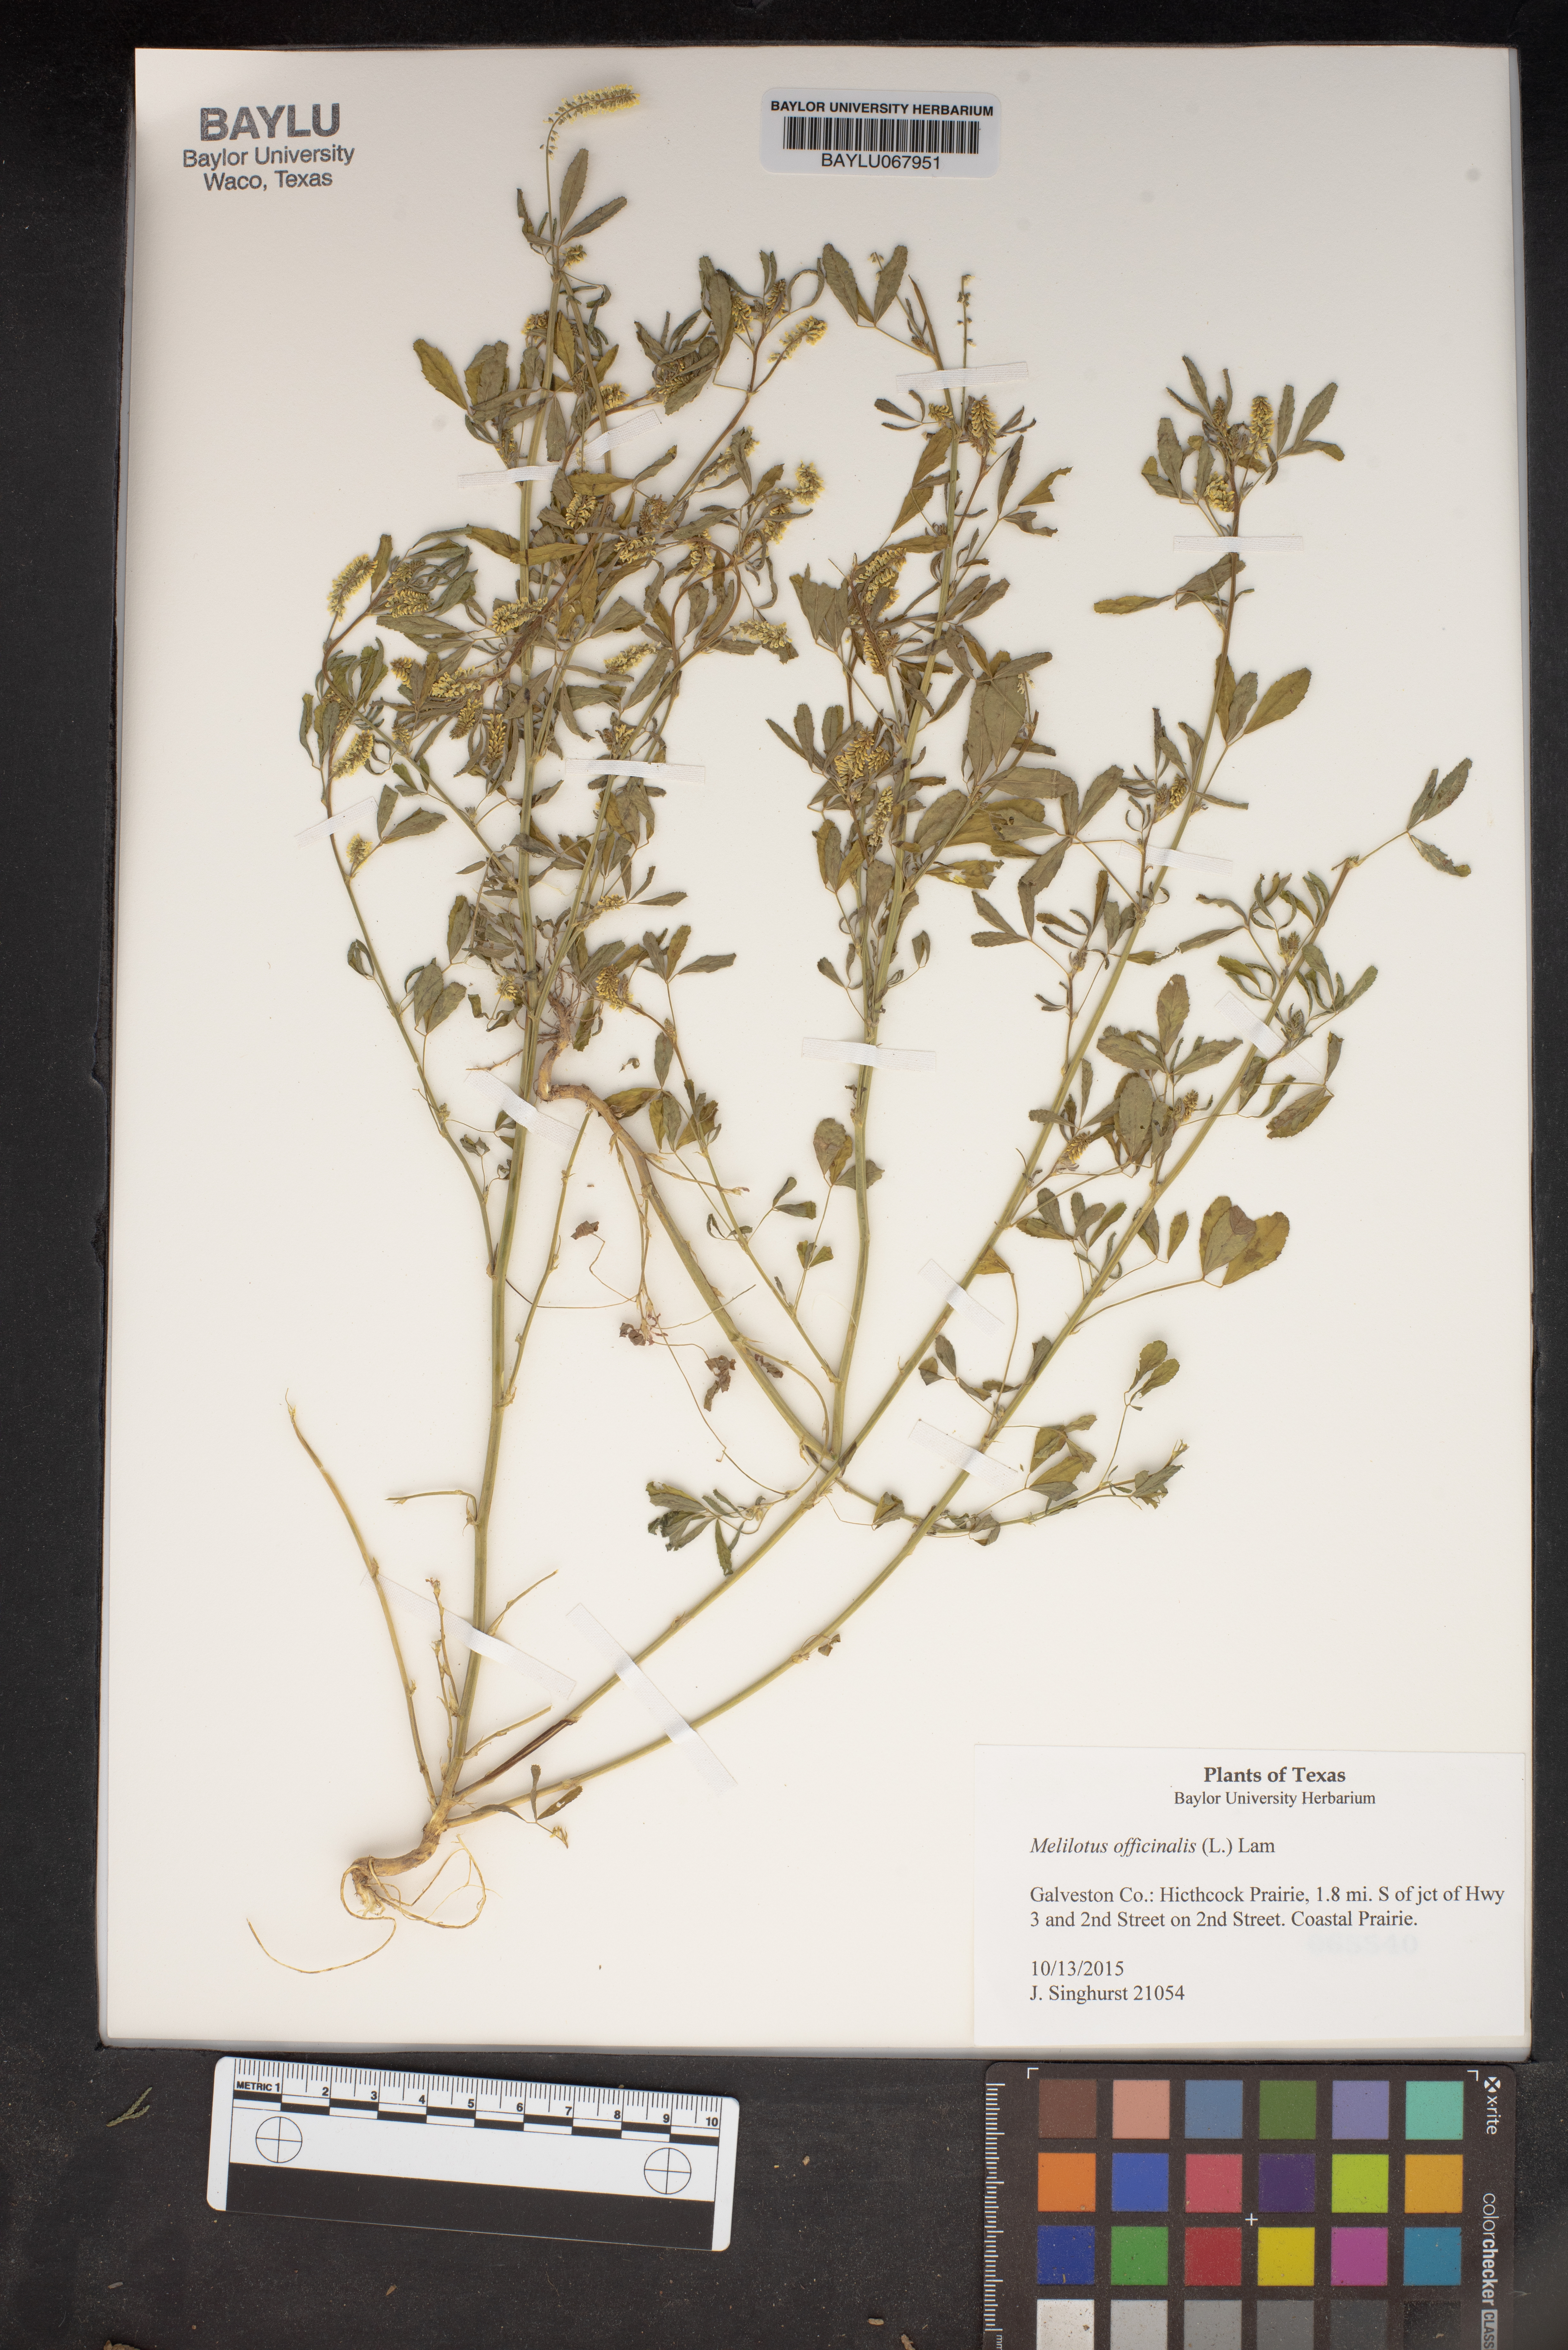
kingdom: Plantae
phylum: Tracheophyta
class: Magnoliopsida
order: Fabales
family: Fabaceae
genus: Melilotus
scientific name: Melilotus officinalis
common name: Sweetclover
